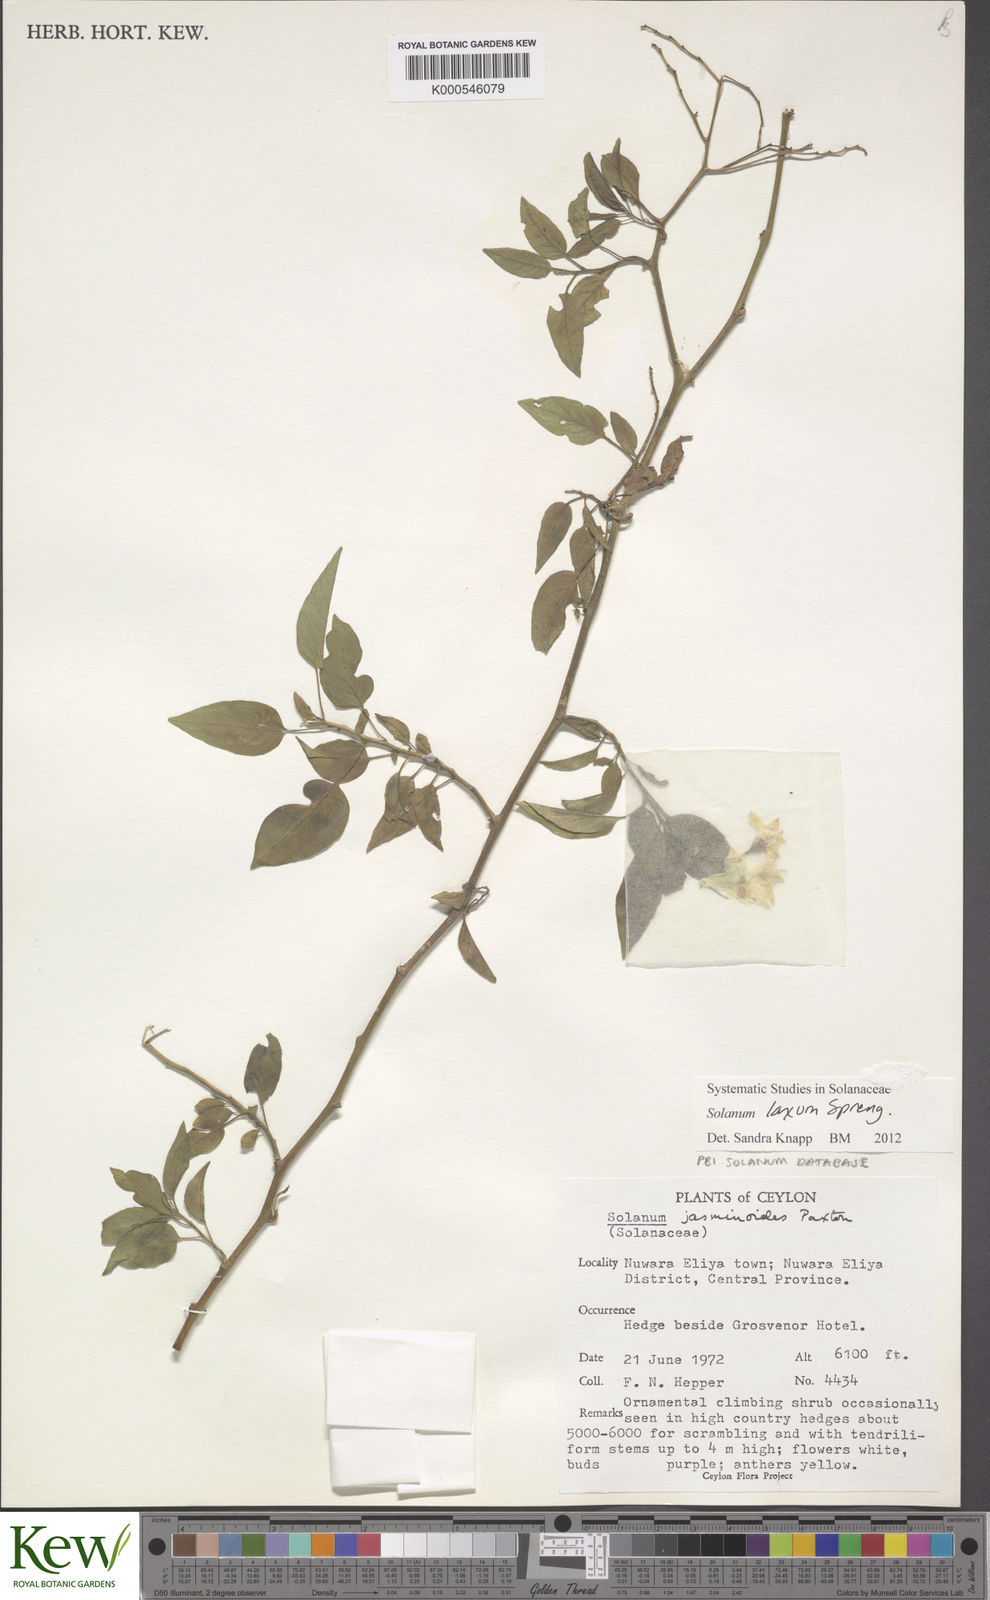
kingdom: Plantae
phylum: Tracheophyta
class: Magnoliopsida
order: Solanales
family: Solanaceae
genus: Solanum
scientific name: Solanum megalochiton
